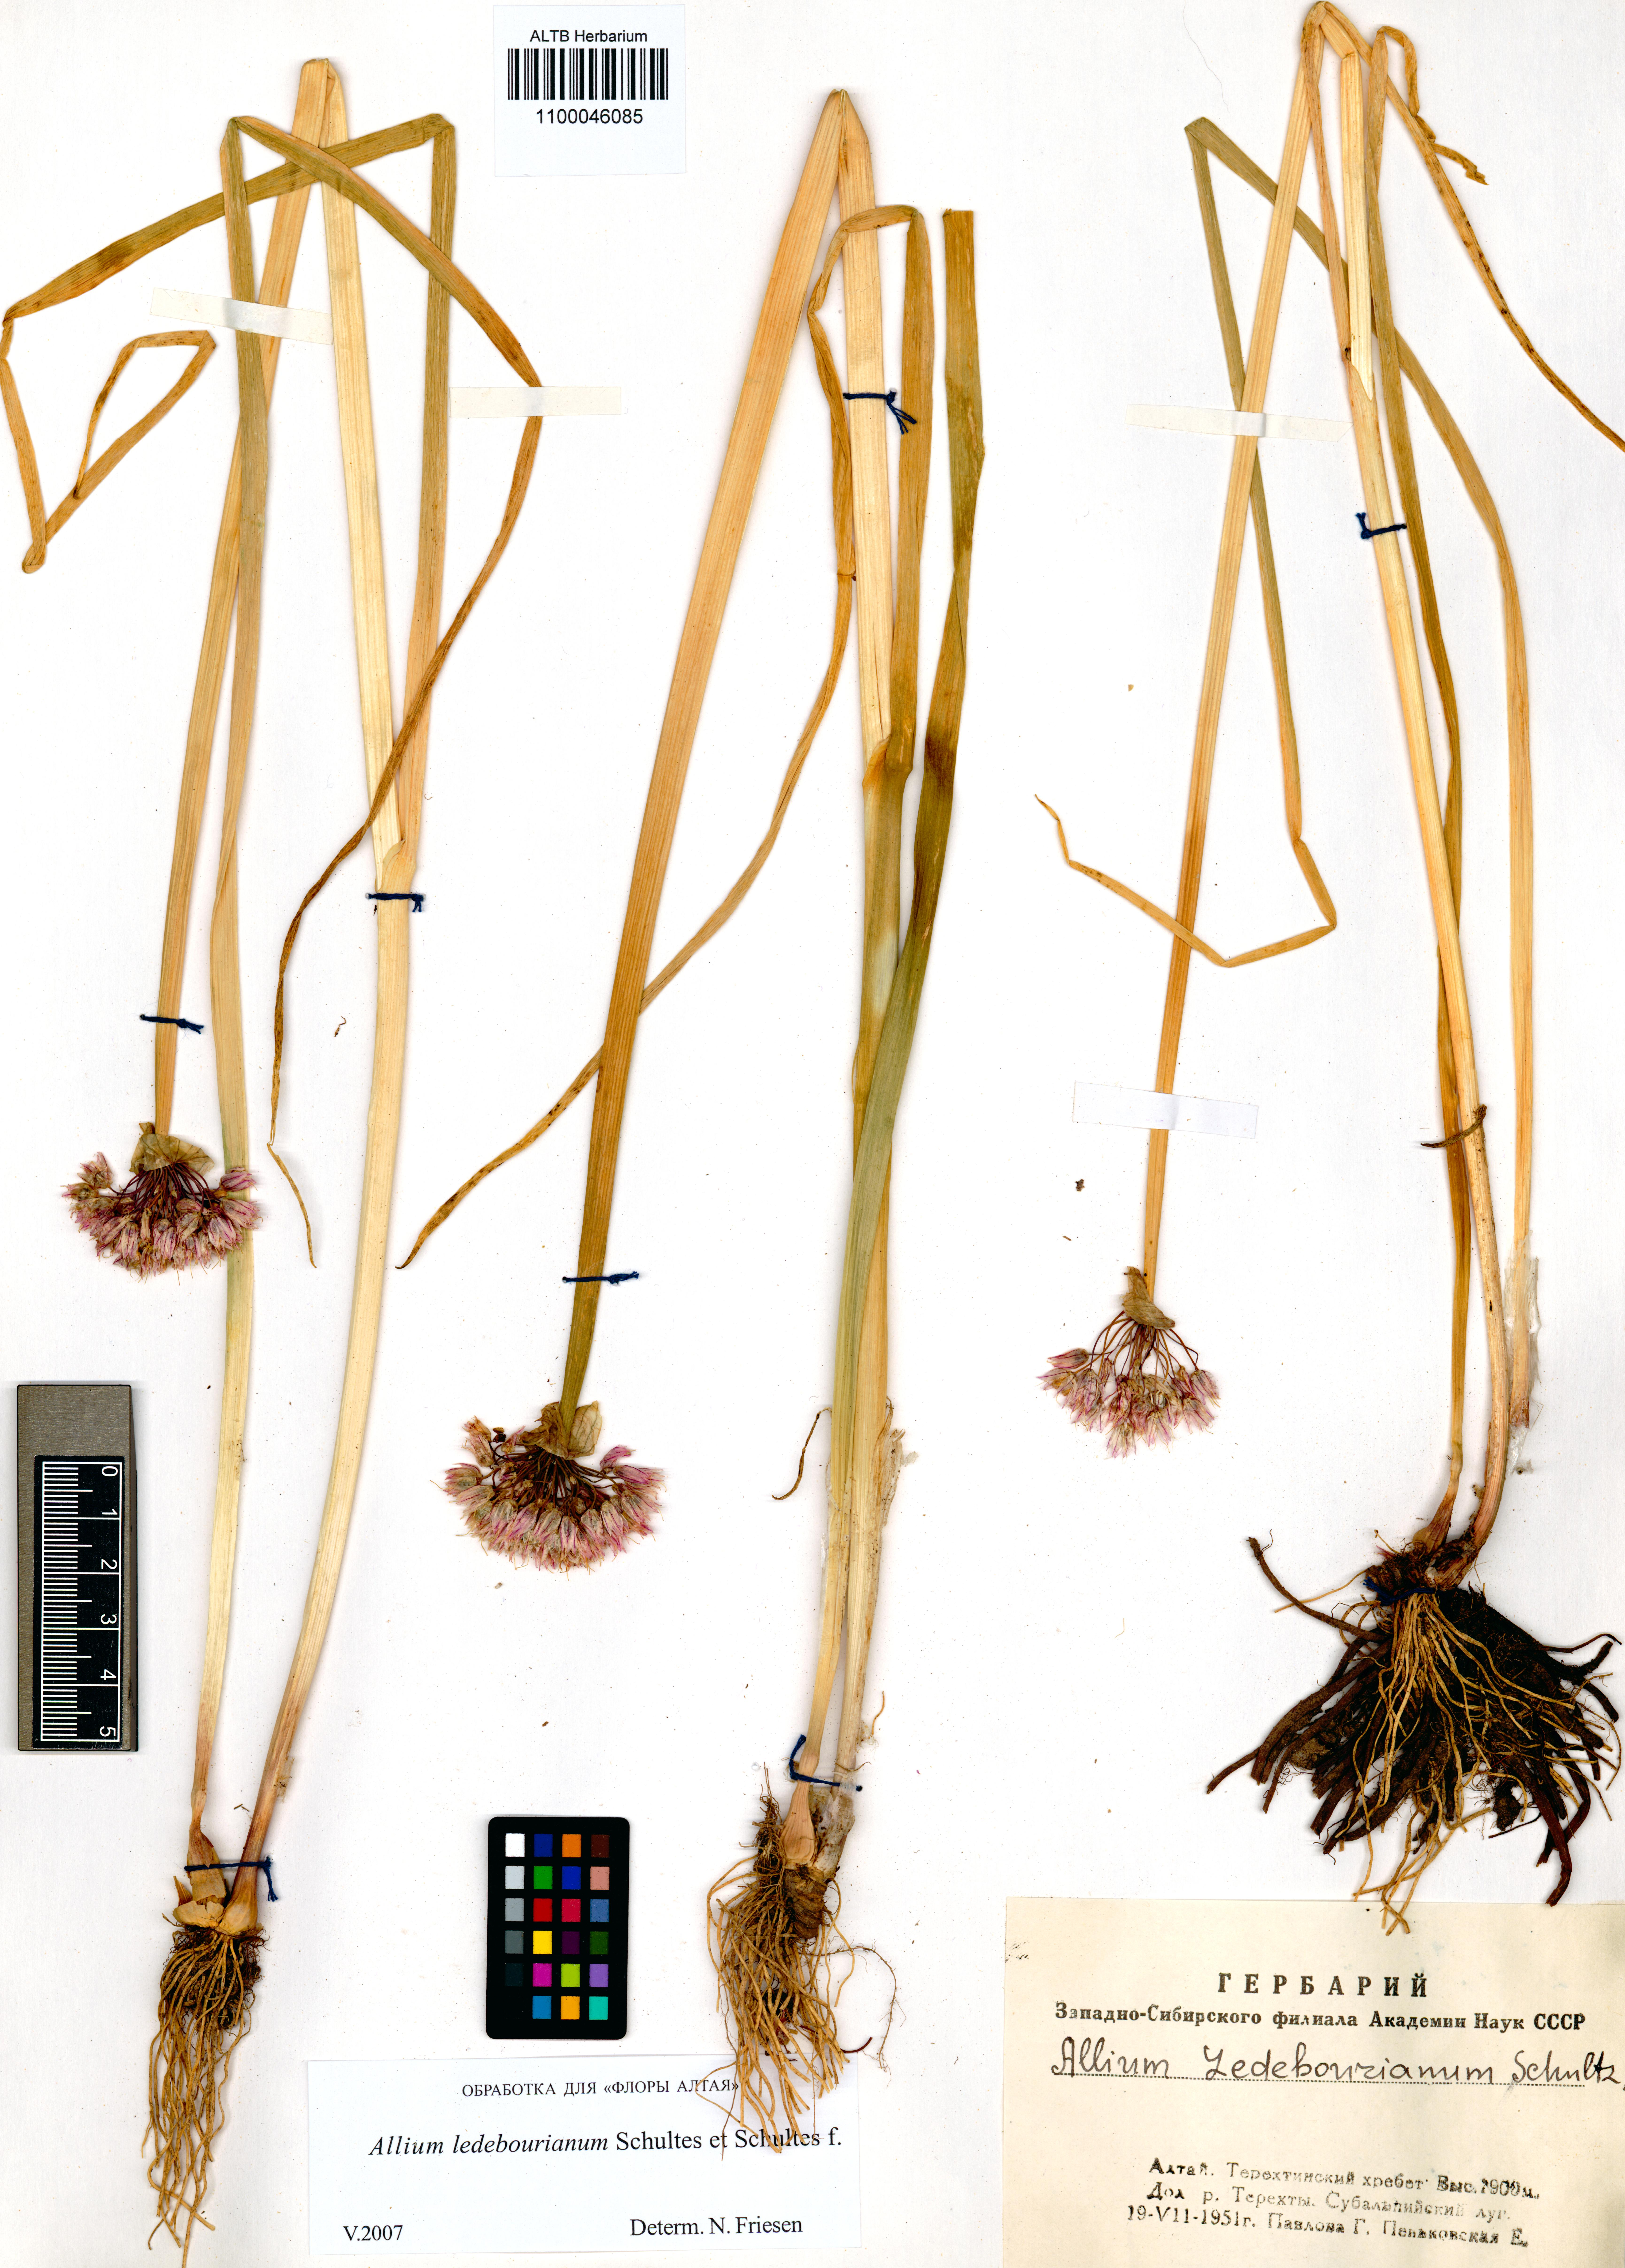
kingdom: Plantae
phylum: Tracheophyta
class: Liliopsida
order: Asparagales
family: Amaryllidaceae
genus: Allium
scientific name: Allium ledebourianum
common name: Ledebour chive
